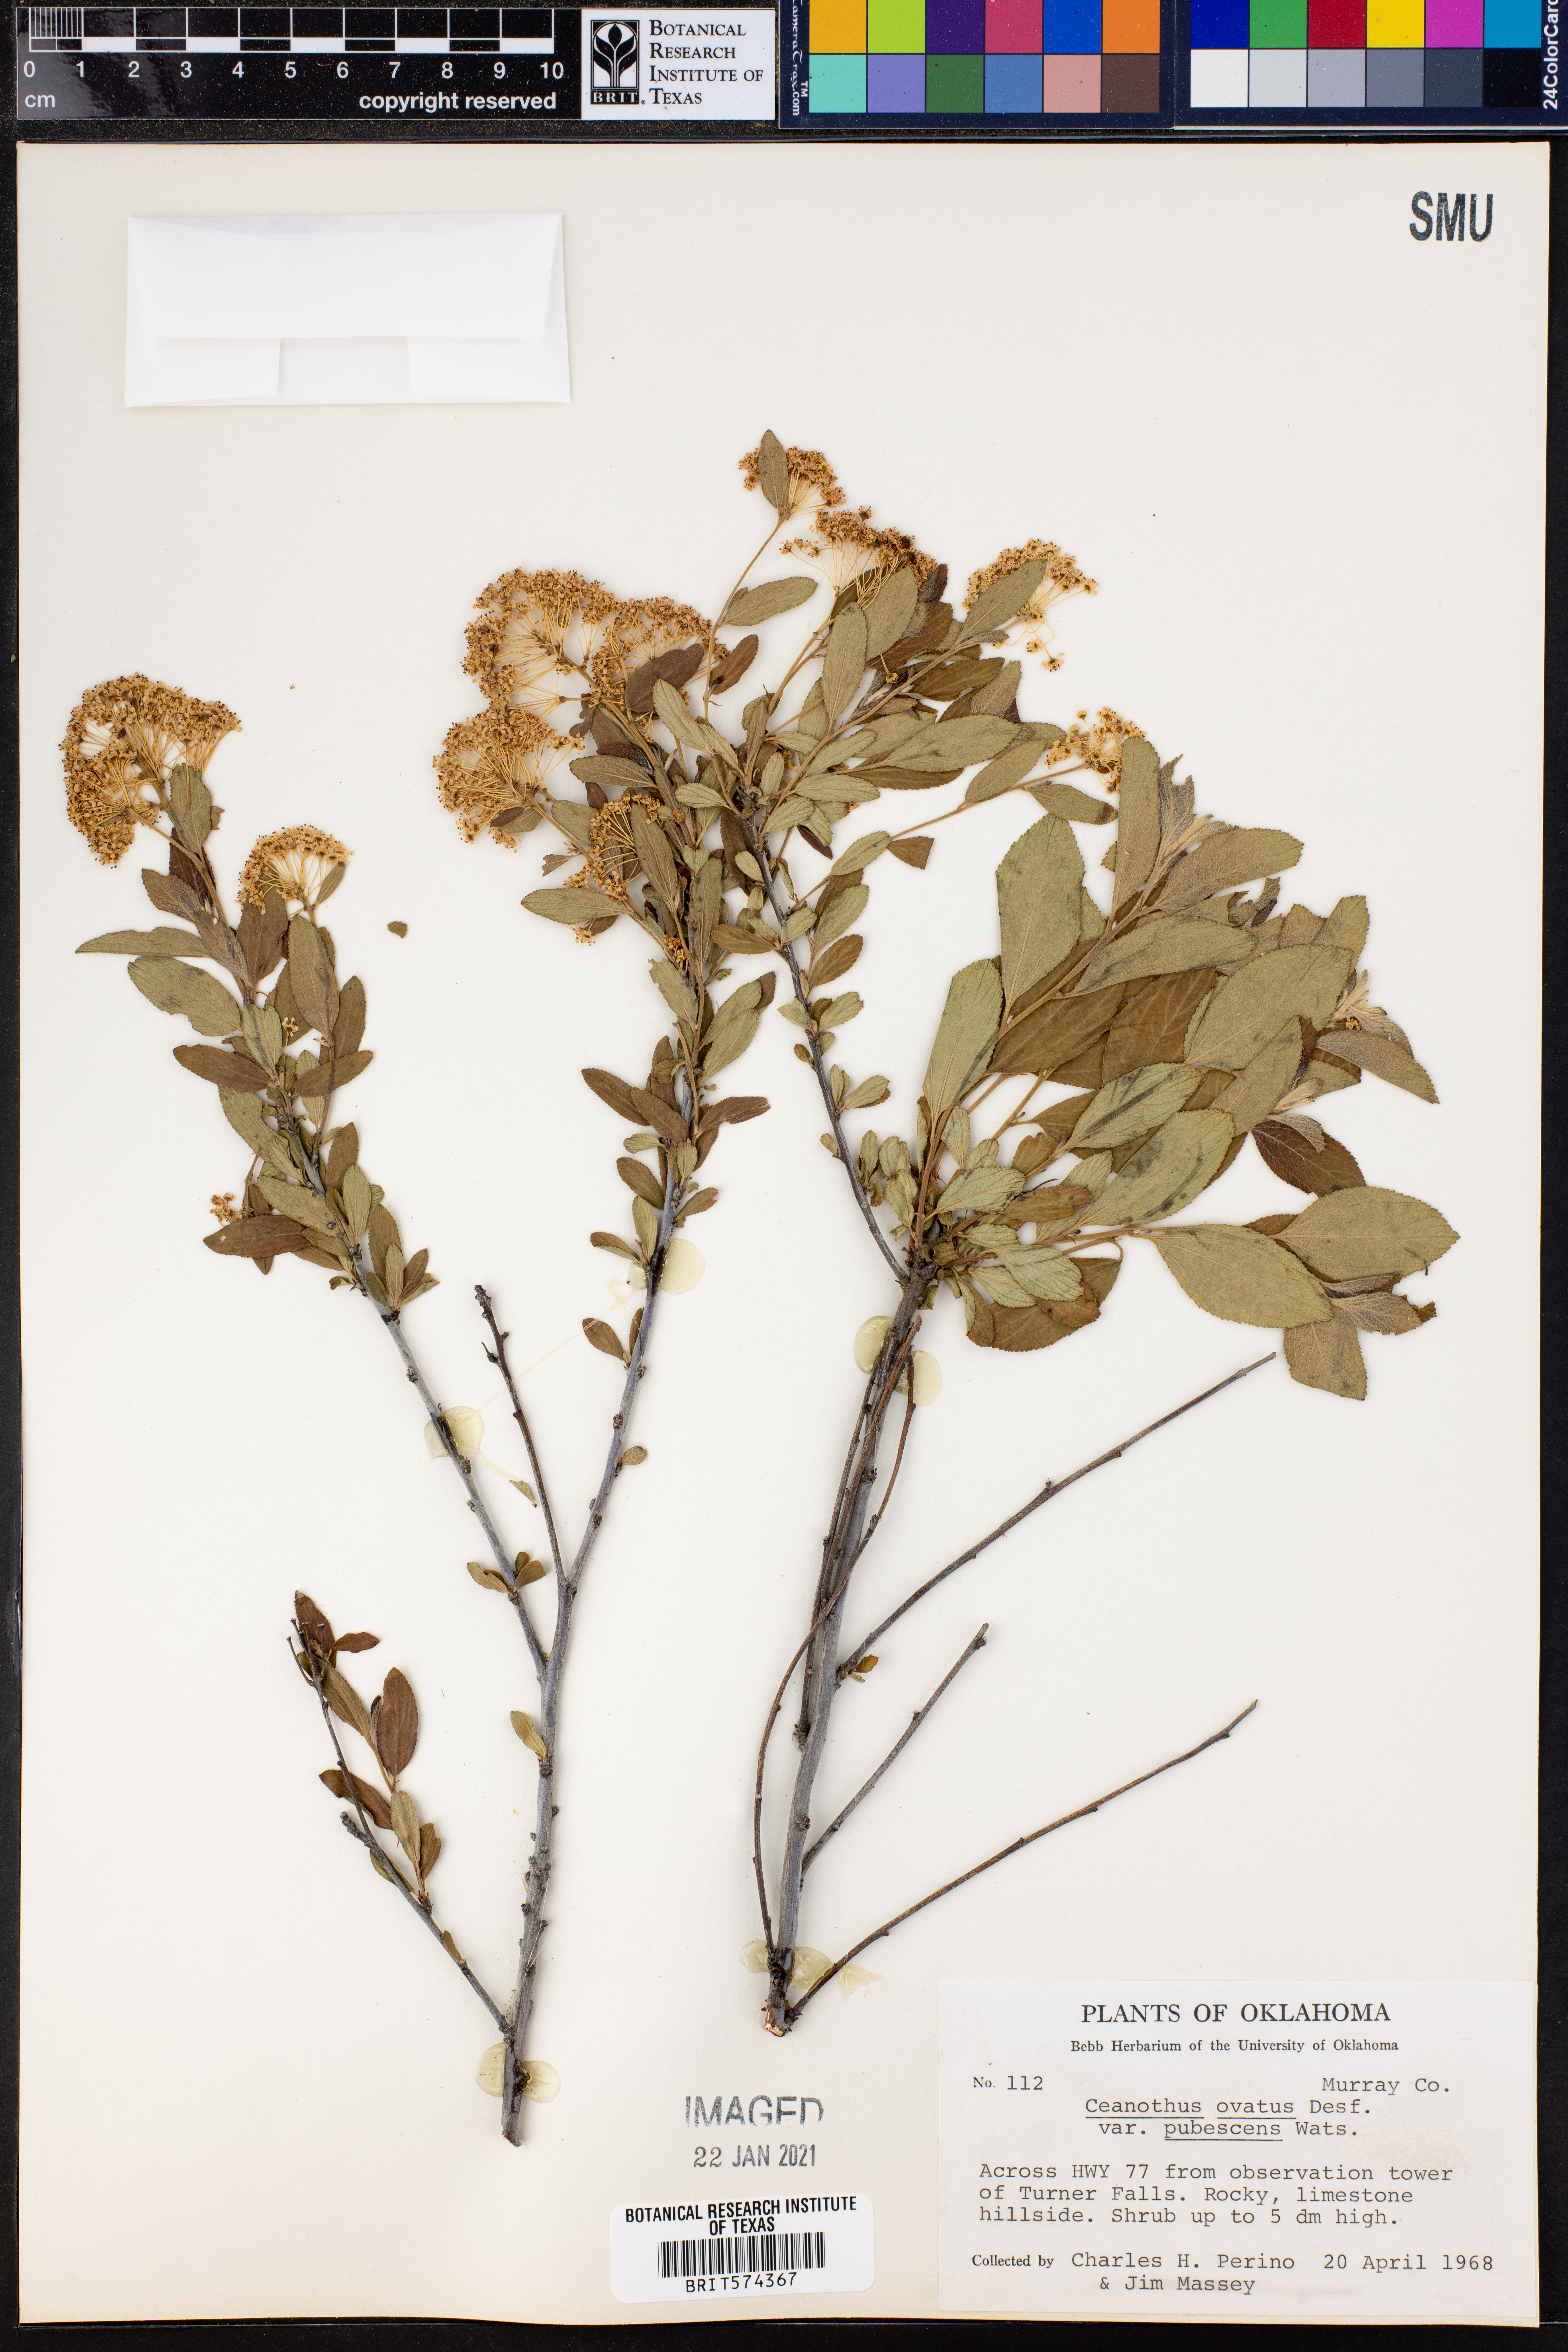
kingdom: Plantae
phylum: Tracheophyta
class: Magnoliopsida
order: Rosales
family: Rhamnaceae
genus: Ceanothus
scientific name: Ceanothus herbaceus
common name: Inland ceanothus
